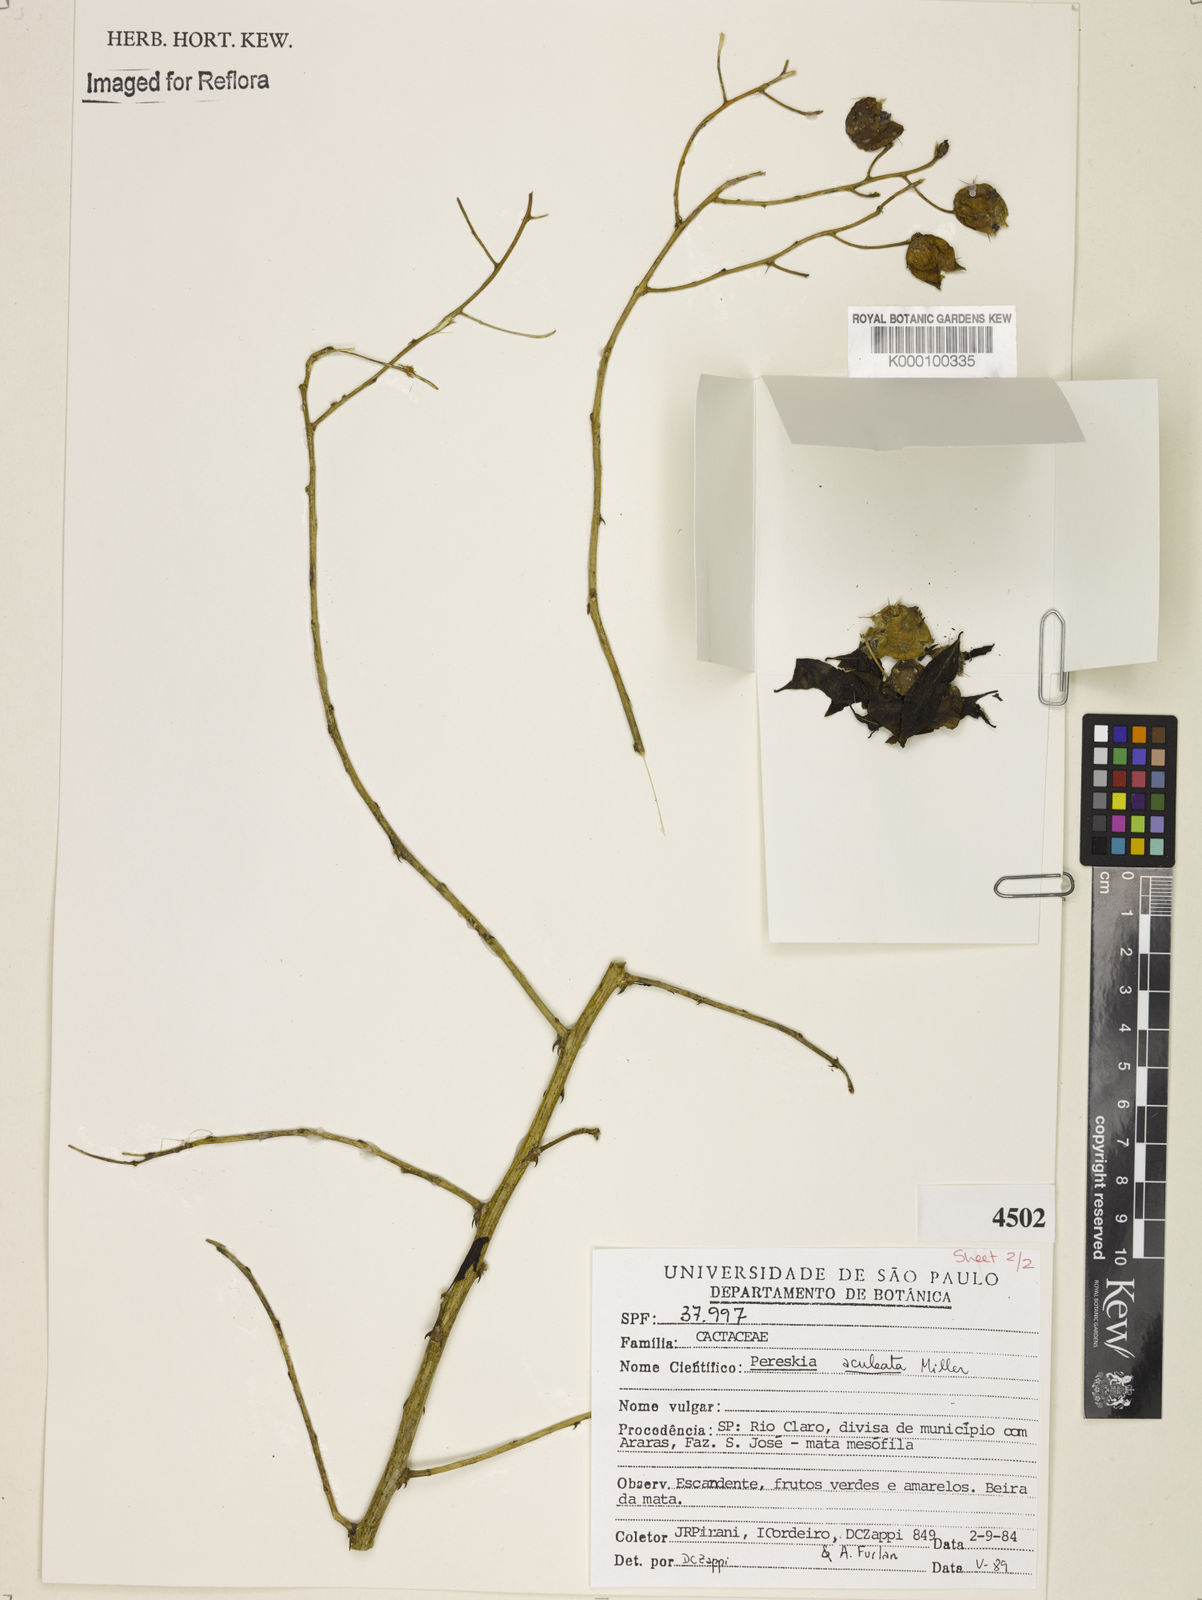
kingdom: Plantae
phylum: Tracheophyta
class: Magnoliopsida
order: Caryophyllales
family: Cactaceae
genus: Pereskia
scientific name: Pereskia aculeata
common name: Barbados gooseberry
